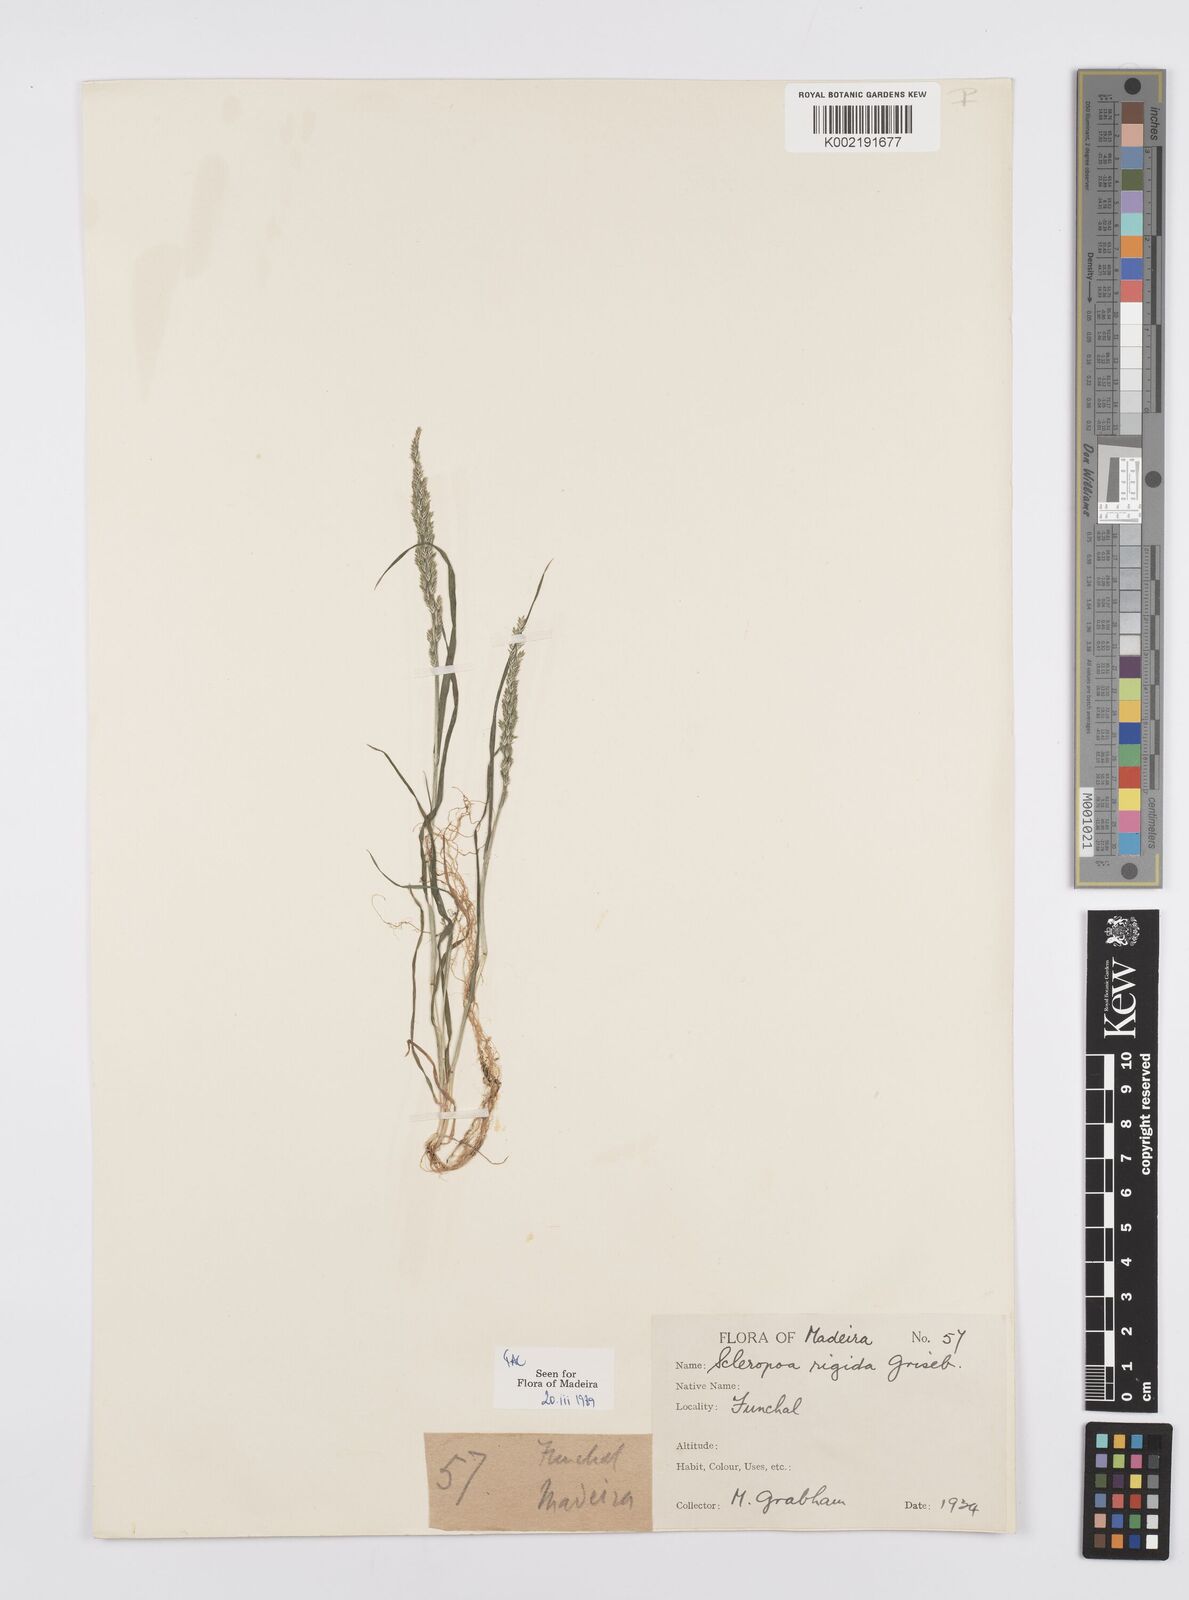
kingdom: Plantae
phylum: Tracheophyta
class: Liliopsida
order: Poales
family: Poaceae
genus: Catapodium
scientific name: Catapodium rigidum
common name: Fern-grass
